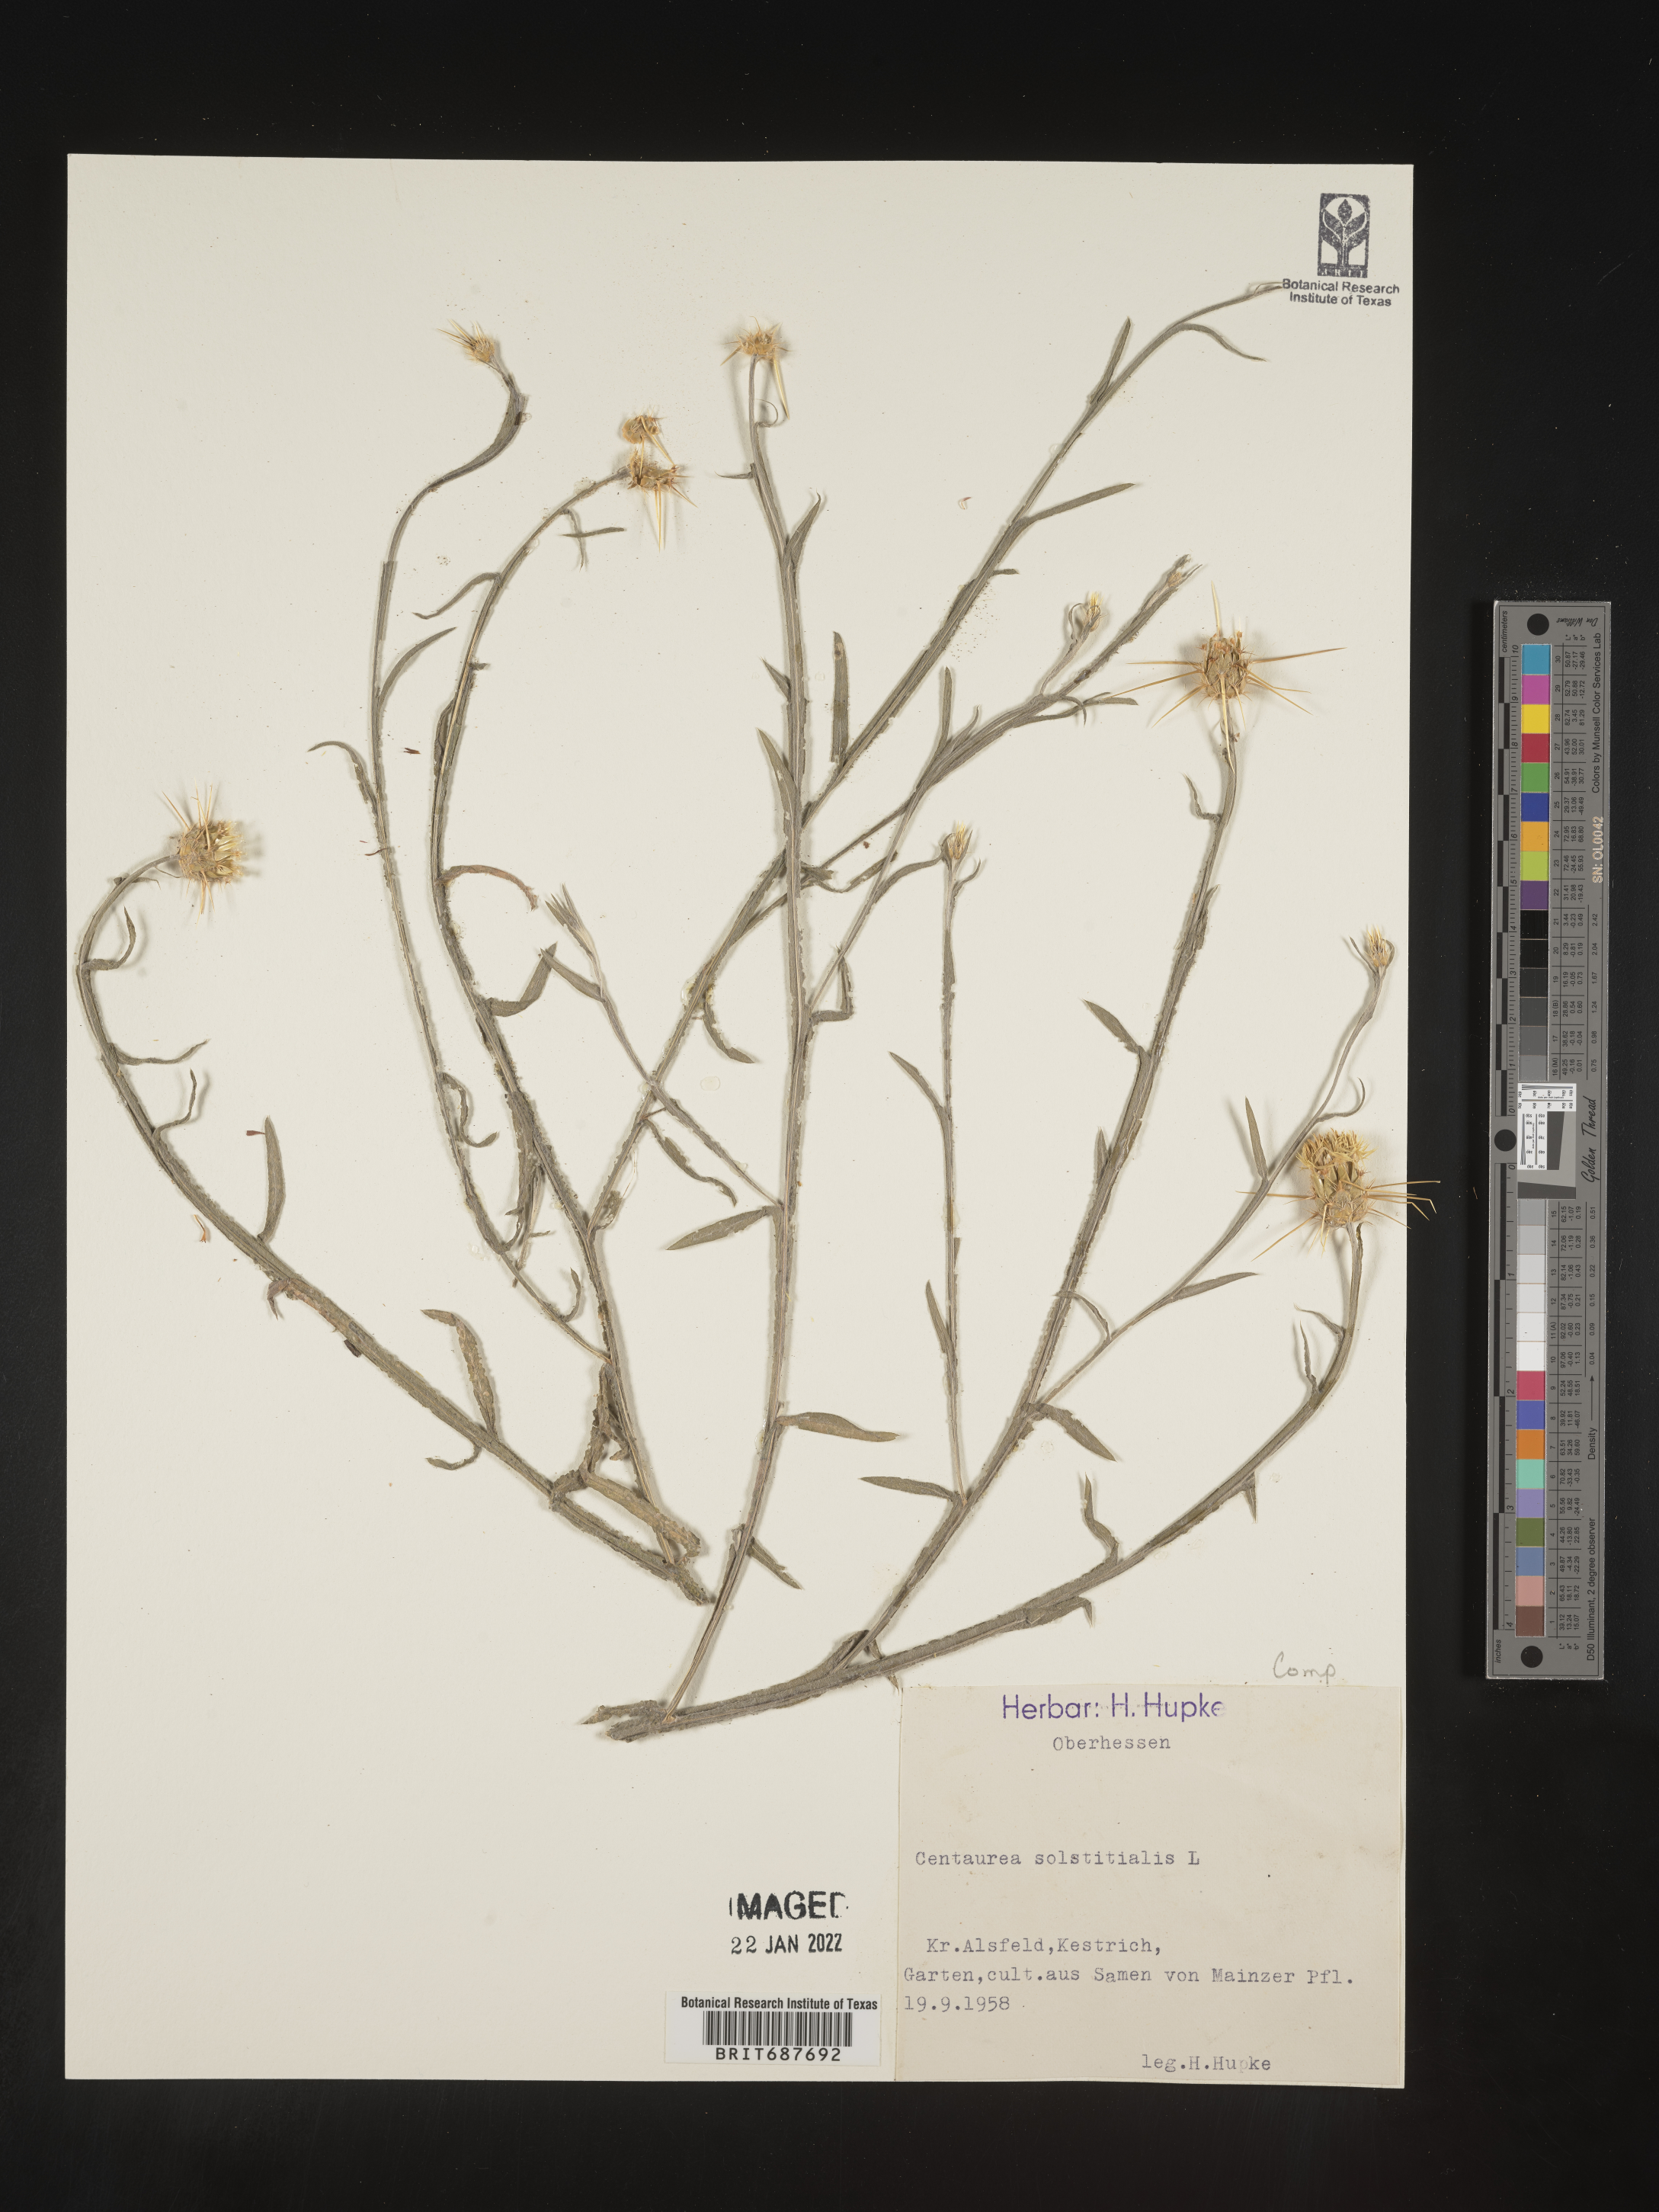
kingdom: Plantae
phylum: Tracheophyta
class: Magnoliopsida
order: Asterales
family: Asteraceae
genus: Centaurea
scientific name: Centaurea
